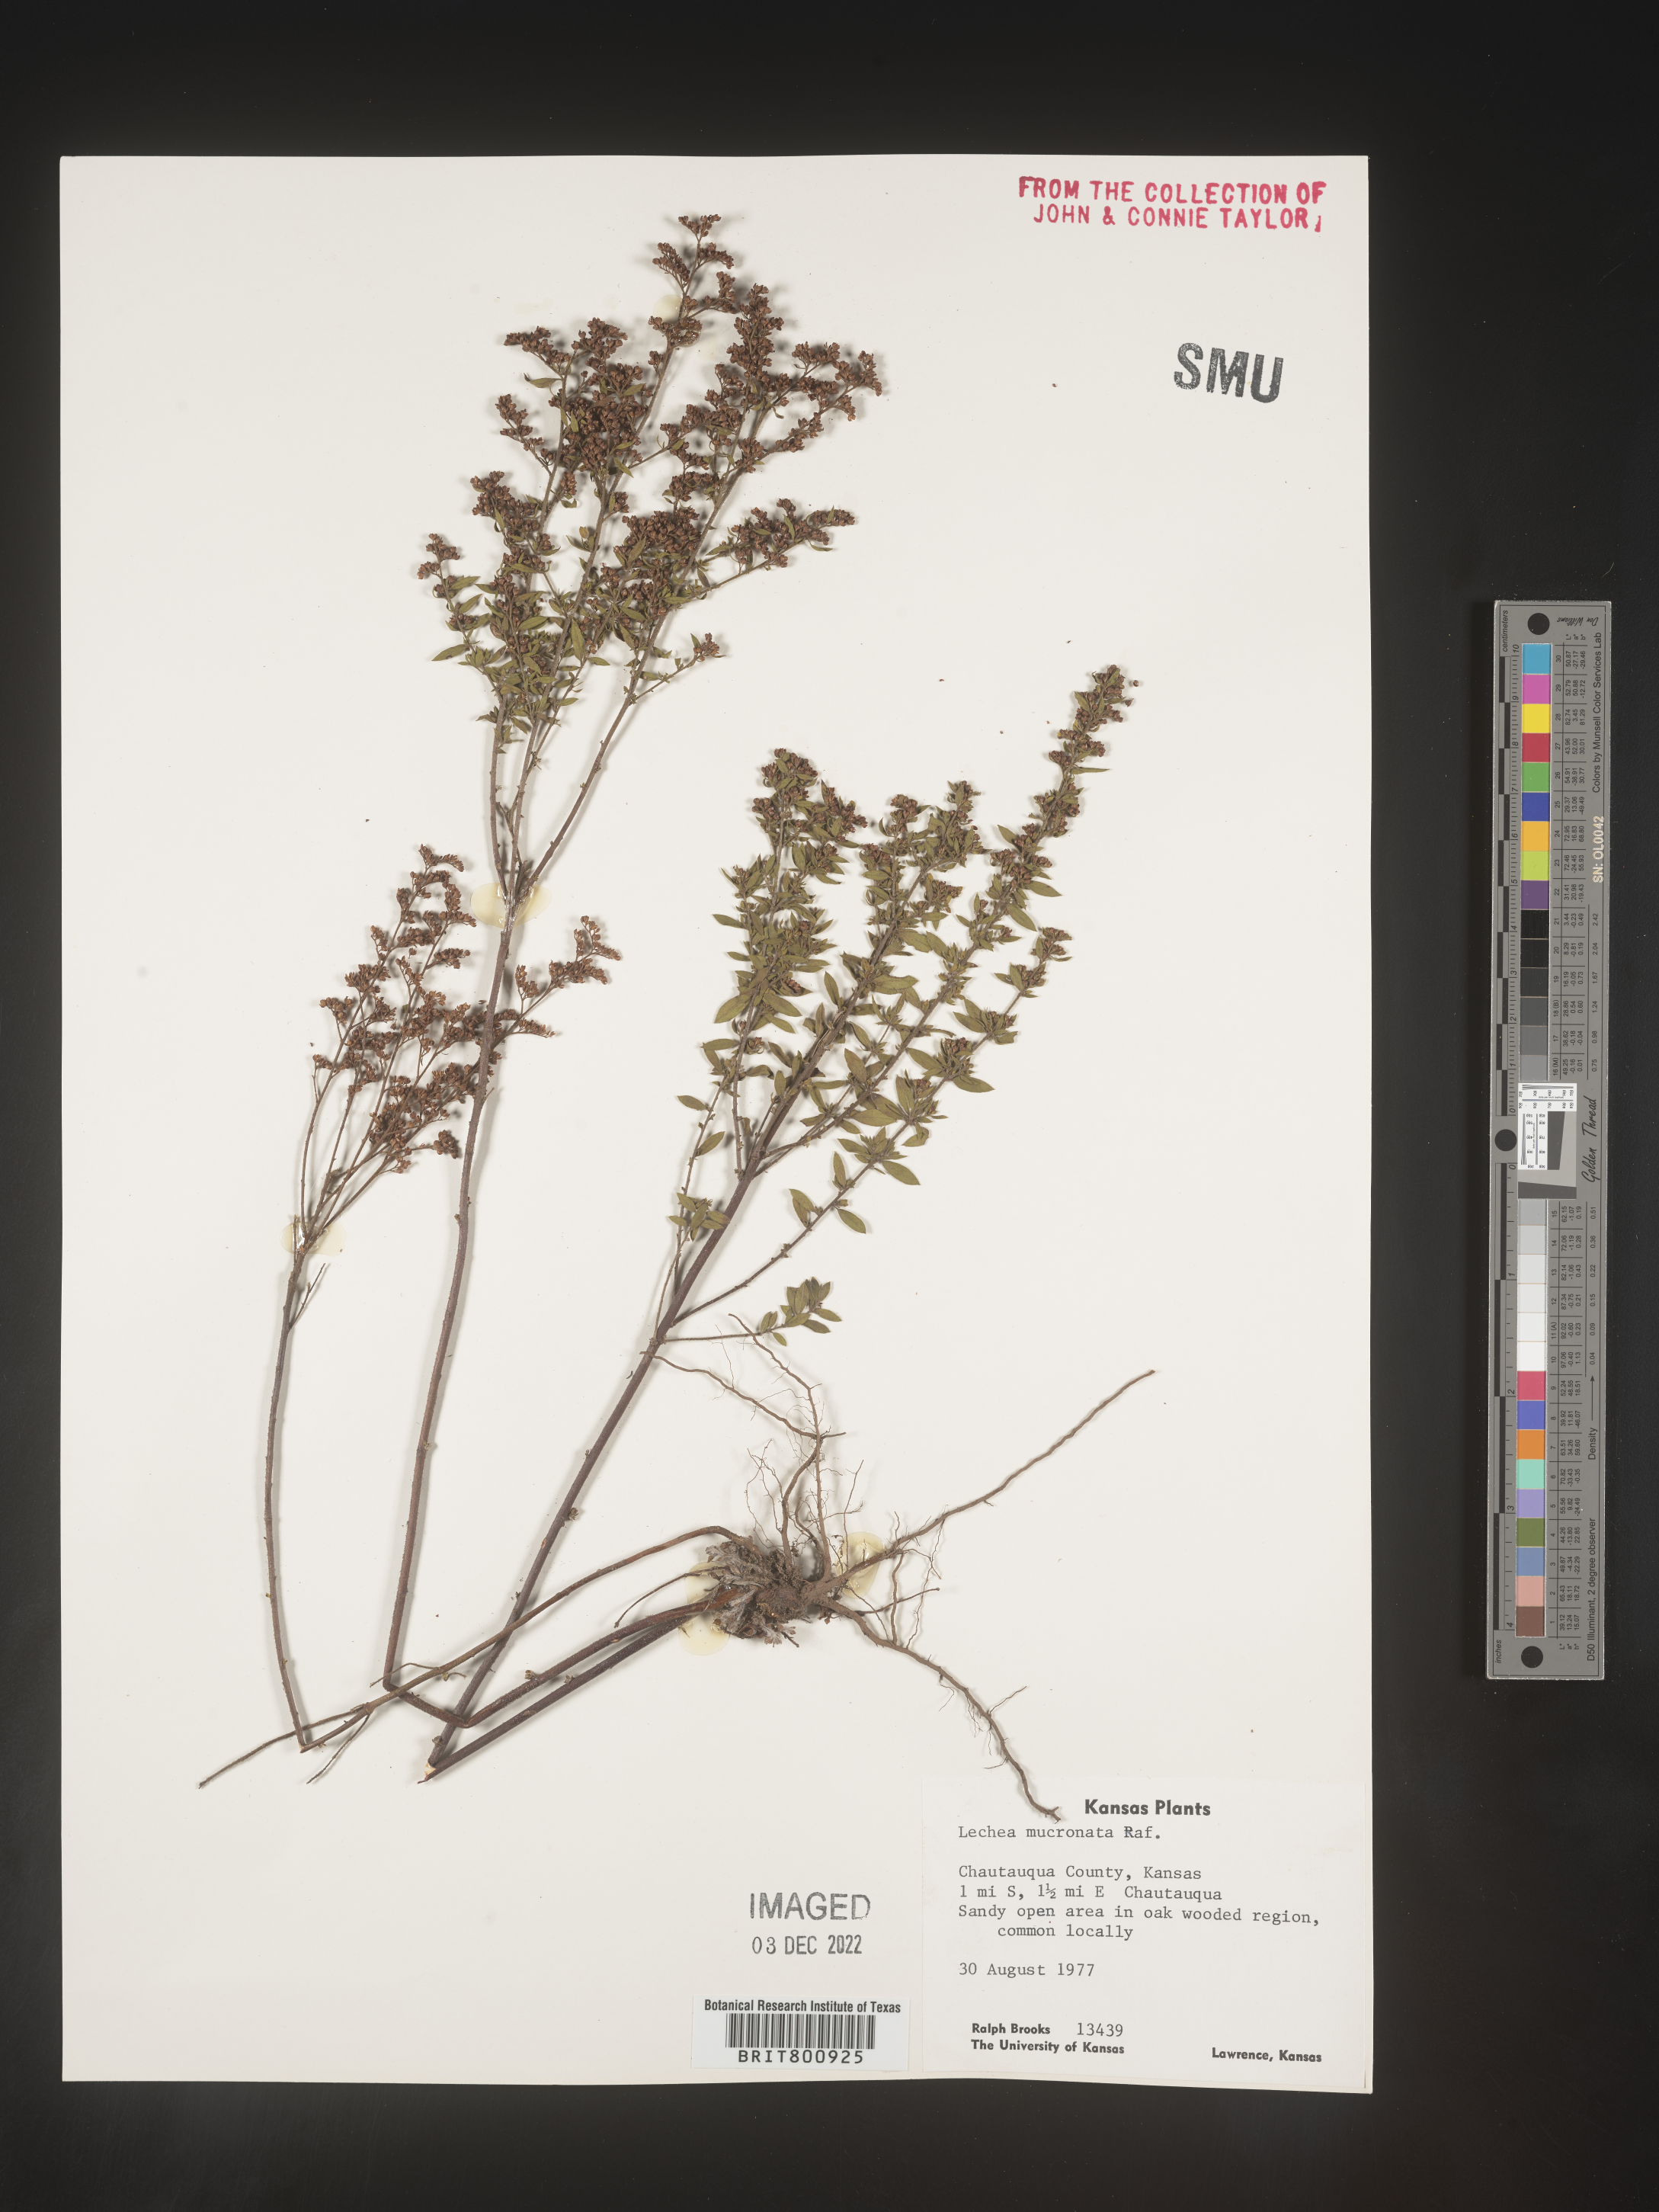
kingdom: Plantae
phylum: Tracheophyta
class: Magnoliopsida
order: Malvales
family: Cistaceae
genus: Lechea
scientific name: Lechea mucronata
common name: Hairy pinweed
